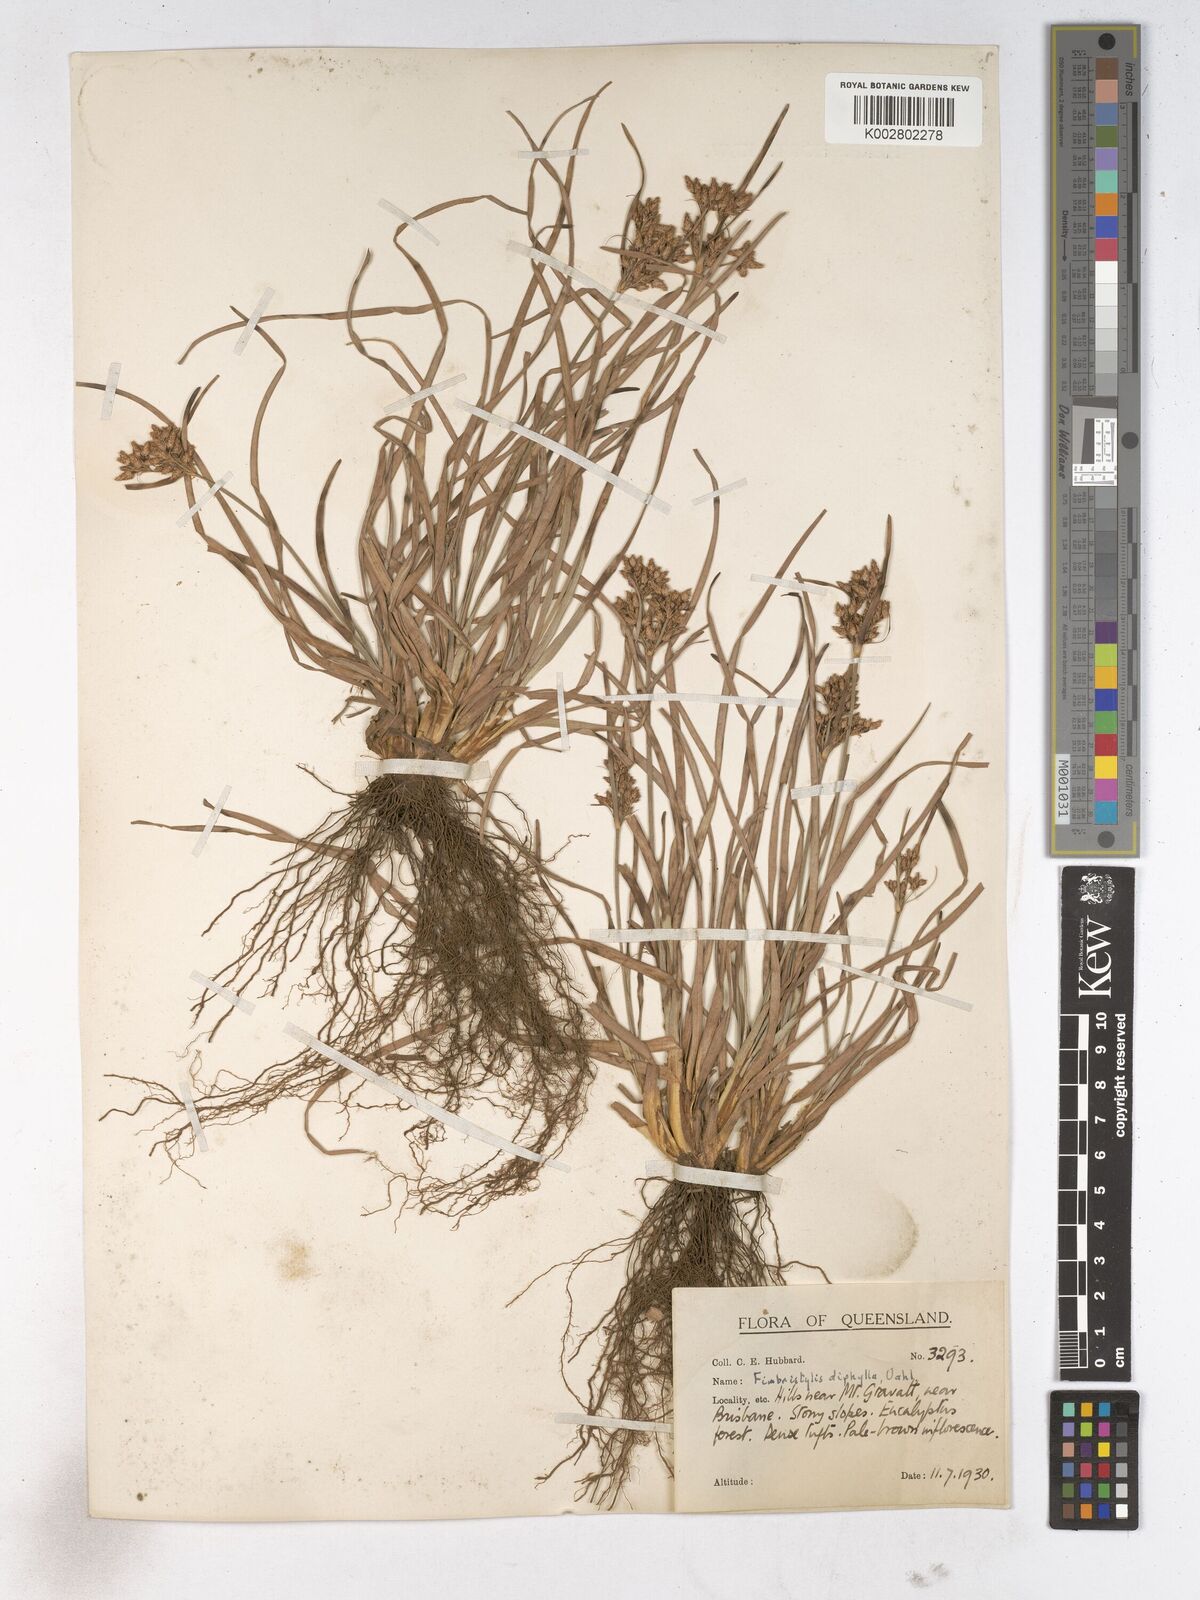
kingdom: Plantae
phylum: Tracheophyta
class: Liliopsida
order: Poales
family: Cyperaceae
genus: Fimbristylis
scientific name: Fimbristylis dichotoma
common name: Forked fimbry
